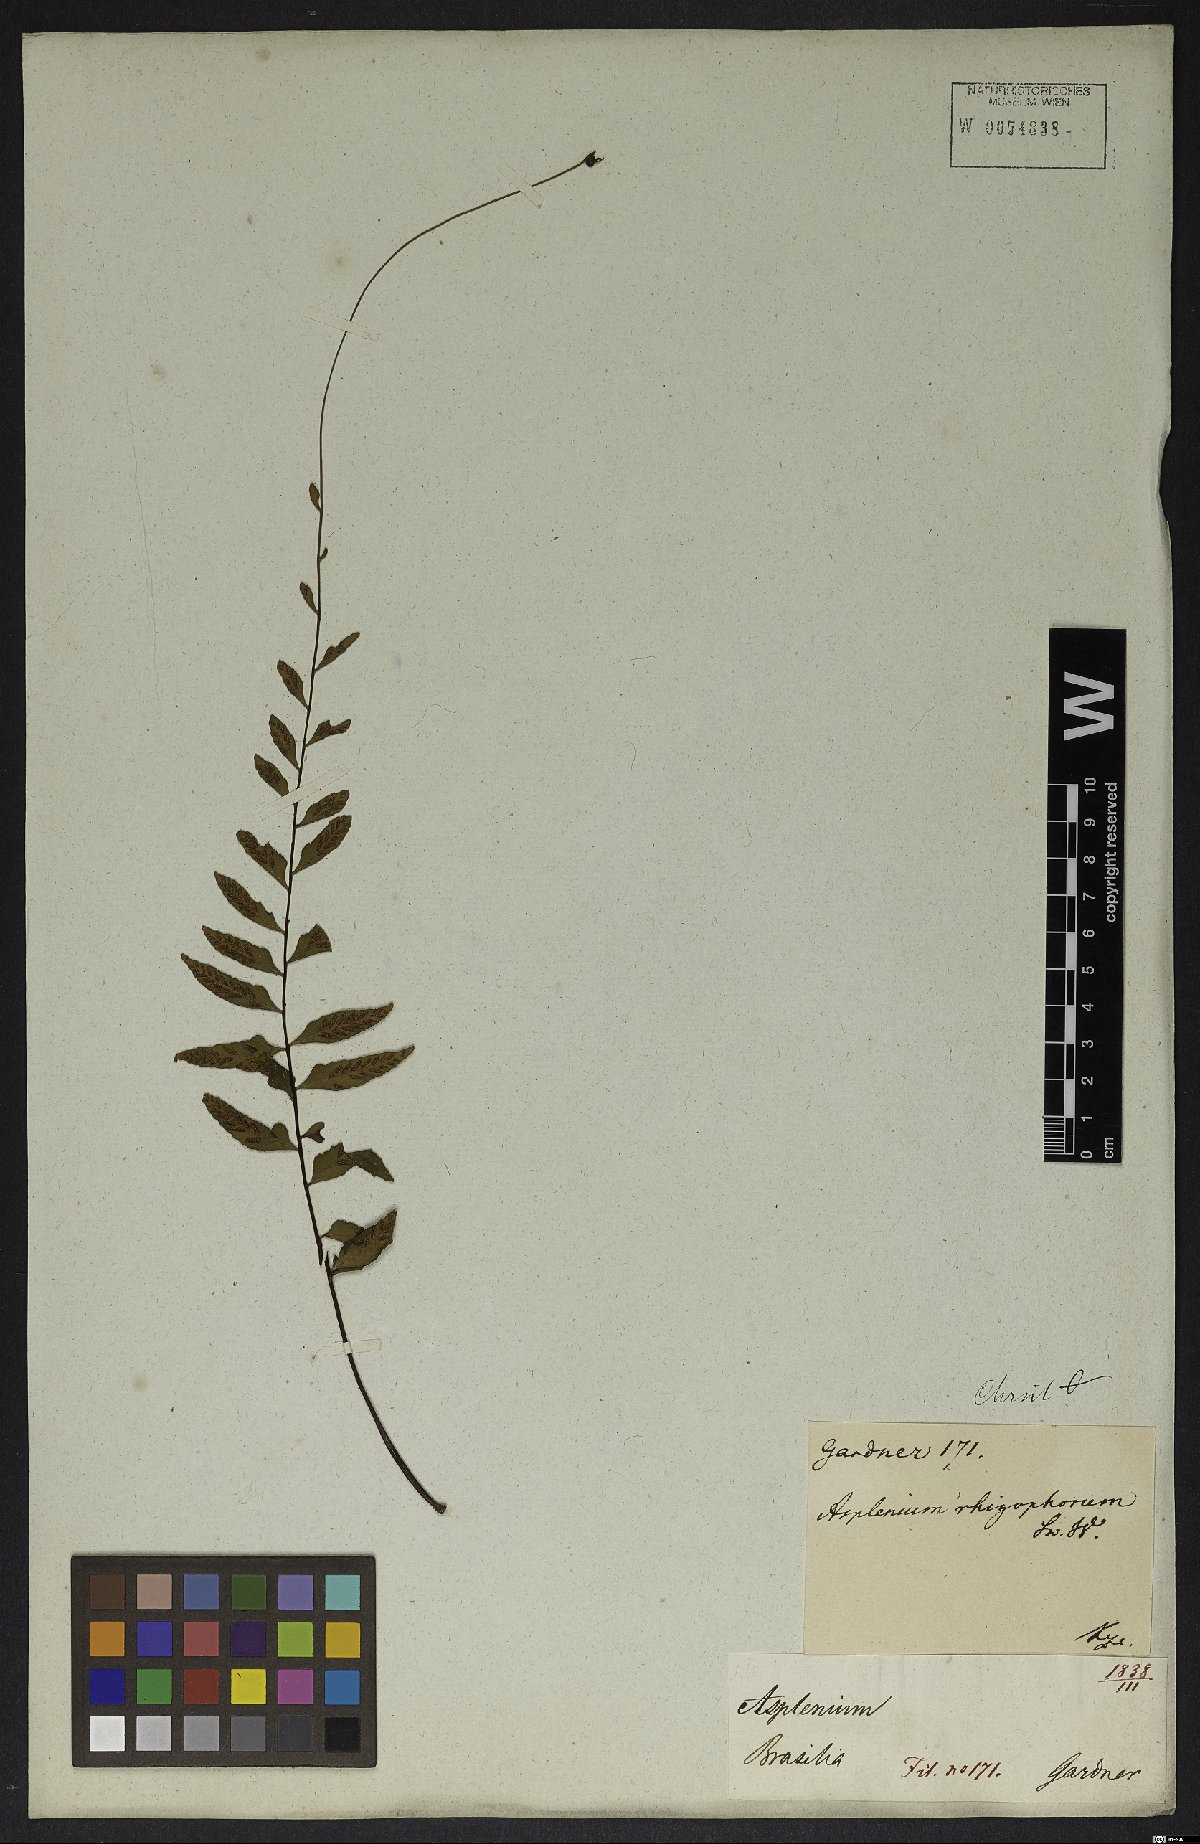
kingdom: Plantae
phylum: Tracheophyta
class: Polypodiopsida
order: Polypodiales
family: Aspleniaceae
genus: Asplenium
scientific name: Asplenium radicans
